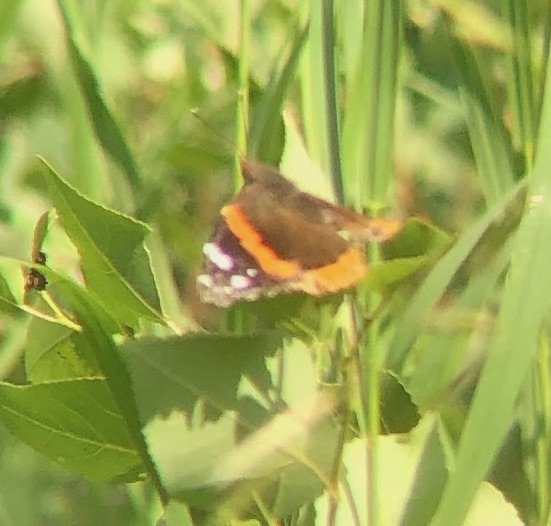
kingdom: Animalia
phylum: Arthropoda
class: Insecta
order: Lepidoptera
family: Nymphalidae
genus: Vanessa
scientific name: Vanessa atalanta
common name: Red Admiral
